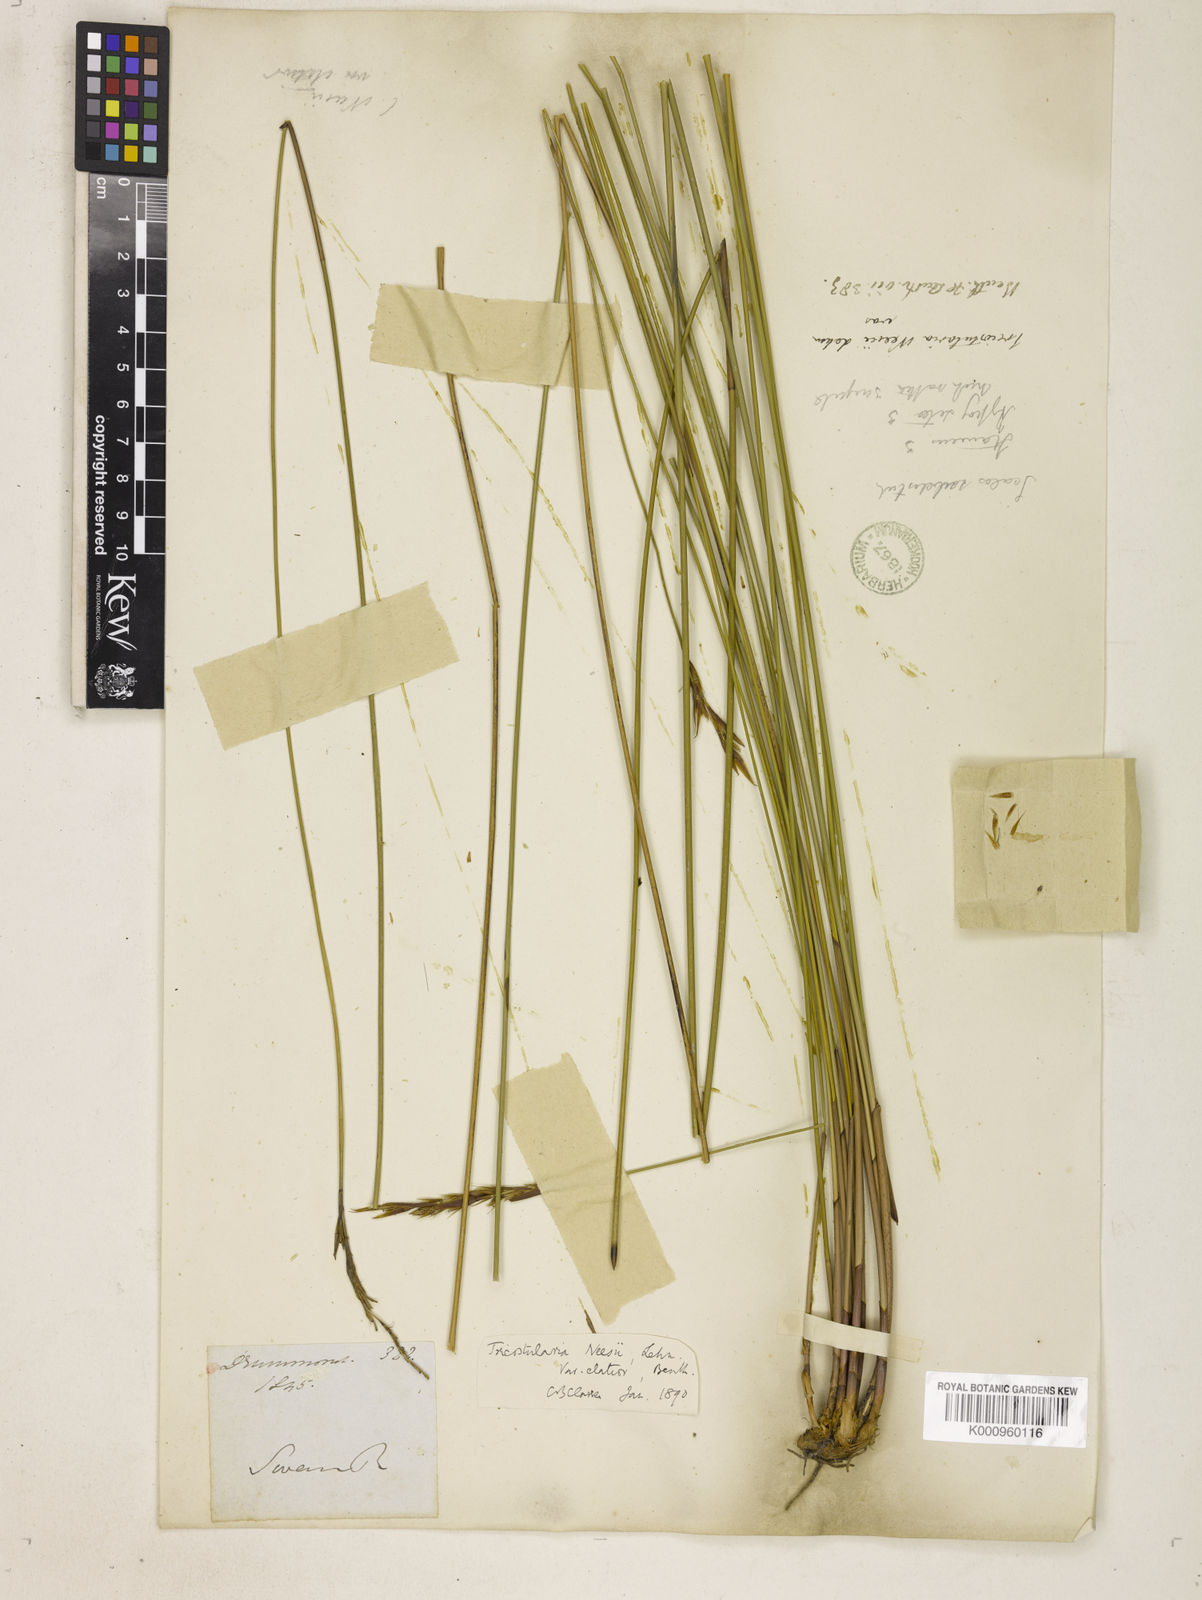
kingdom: Plantae
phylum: Tracheophyta
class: Liliopsida
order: Poales
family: Cyperaceae
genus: Tricostularia
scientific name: Tricostularia neesii
